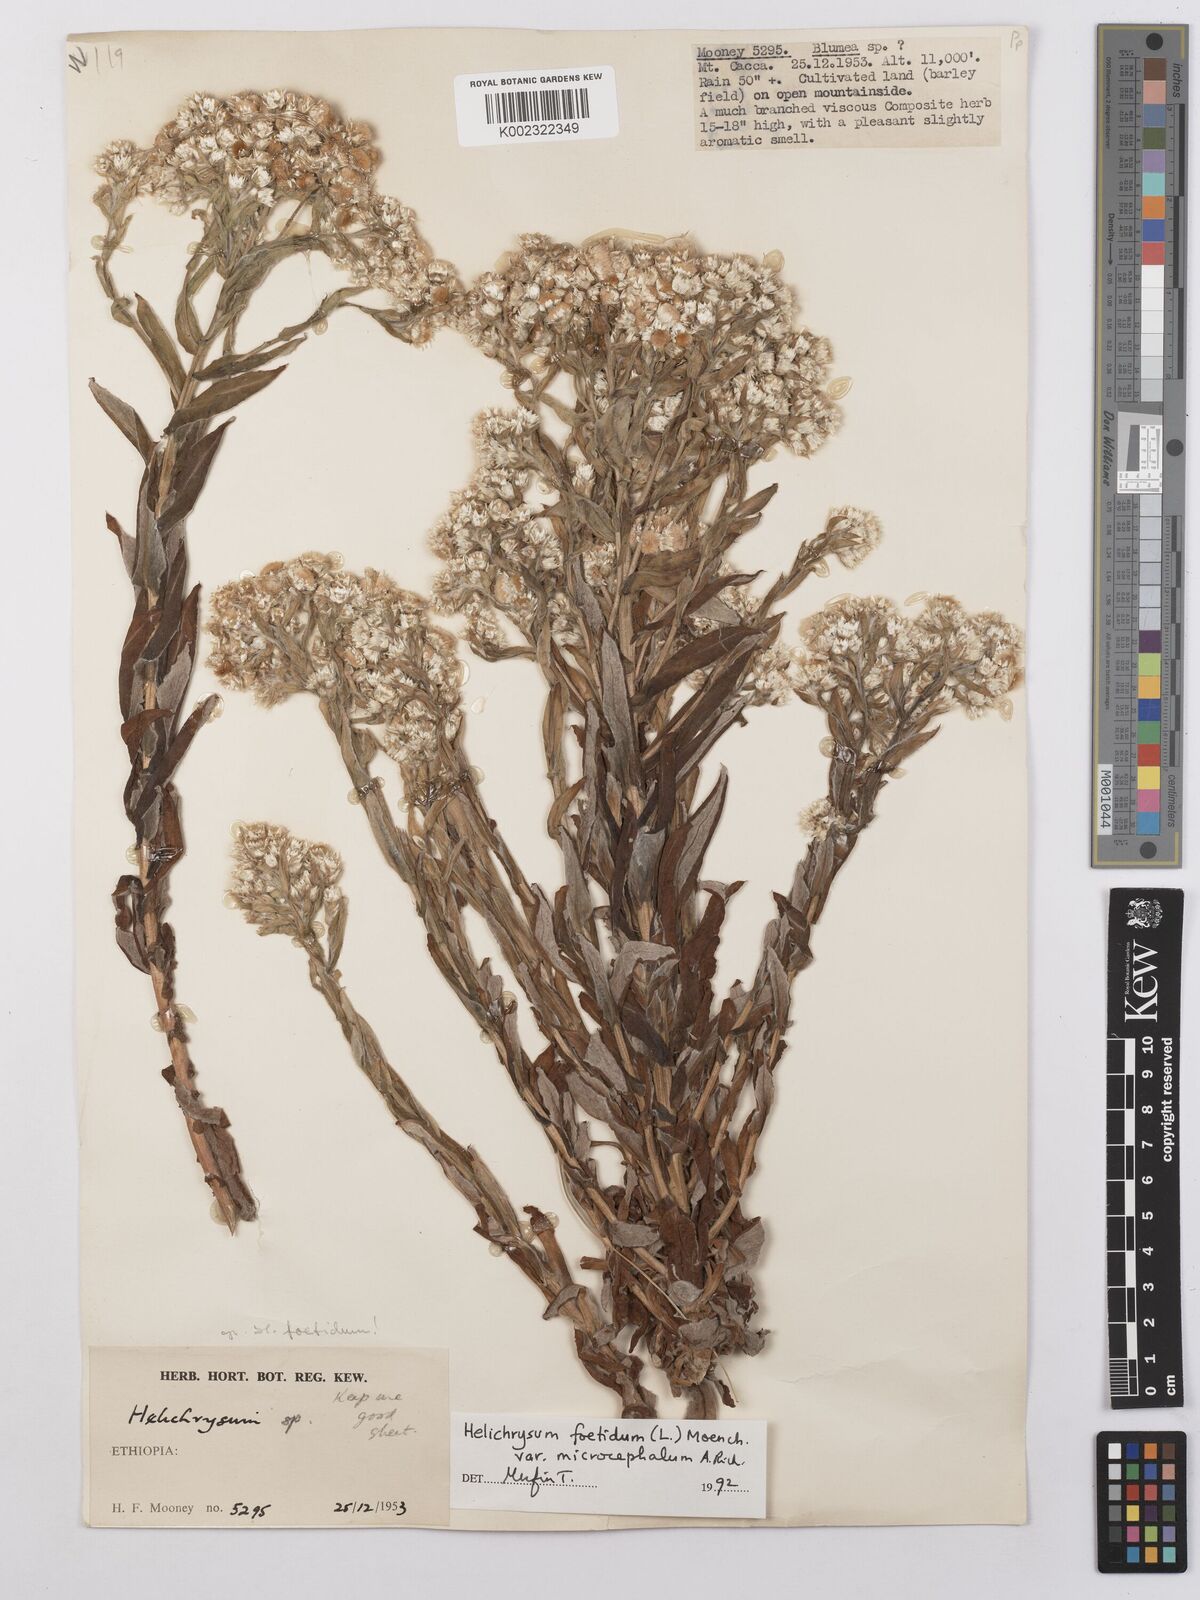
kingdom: Plantae
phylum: Tracheophyta
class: Magnoliopsida
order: Asterales
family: Asteraceae
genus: Helichrysum
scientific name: Helichrysum foetidum
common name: Stinking everlasting
